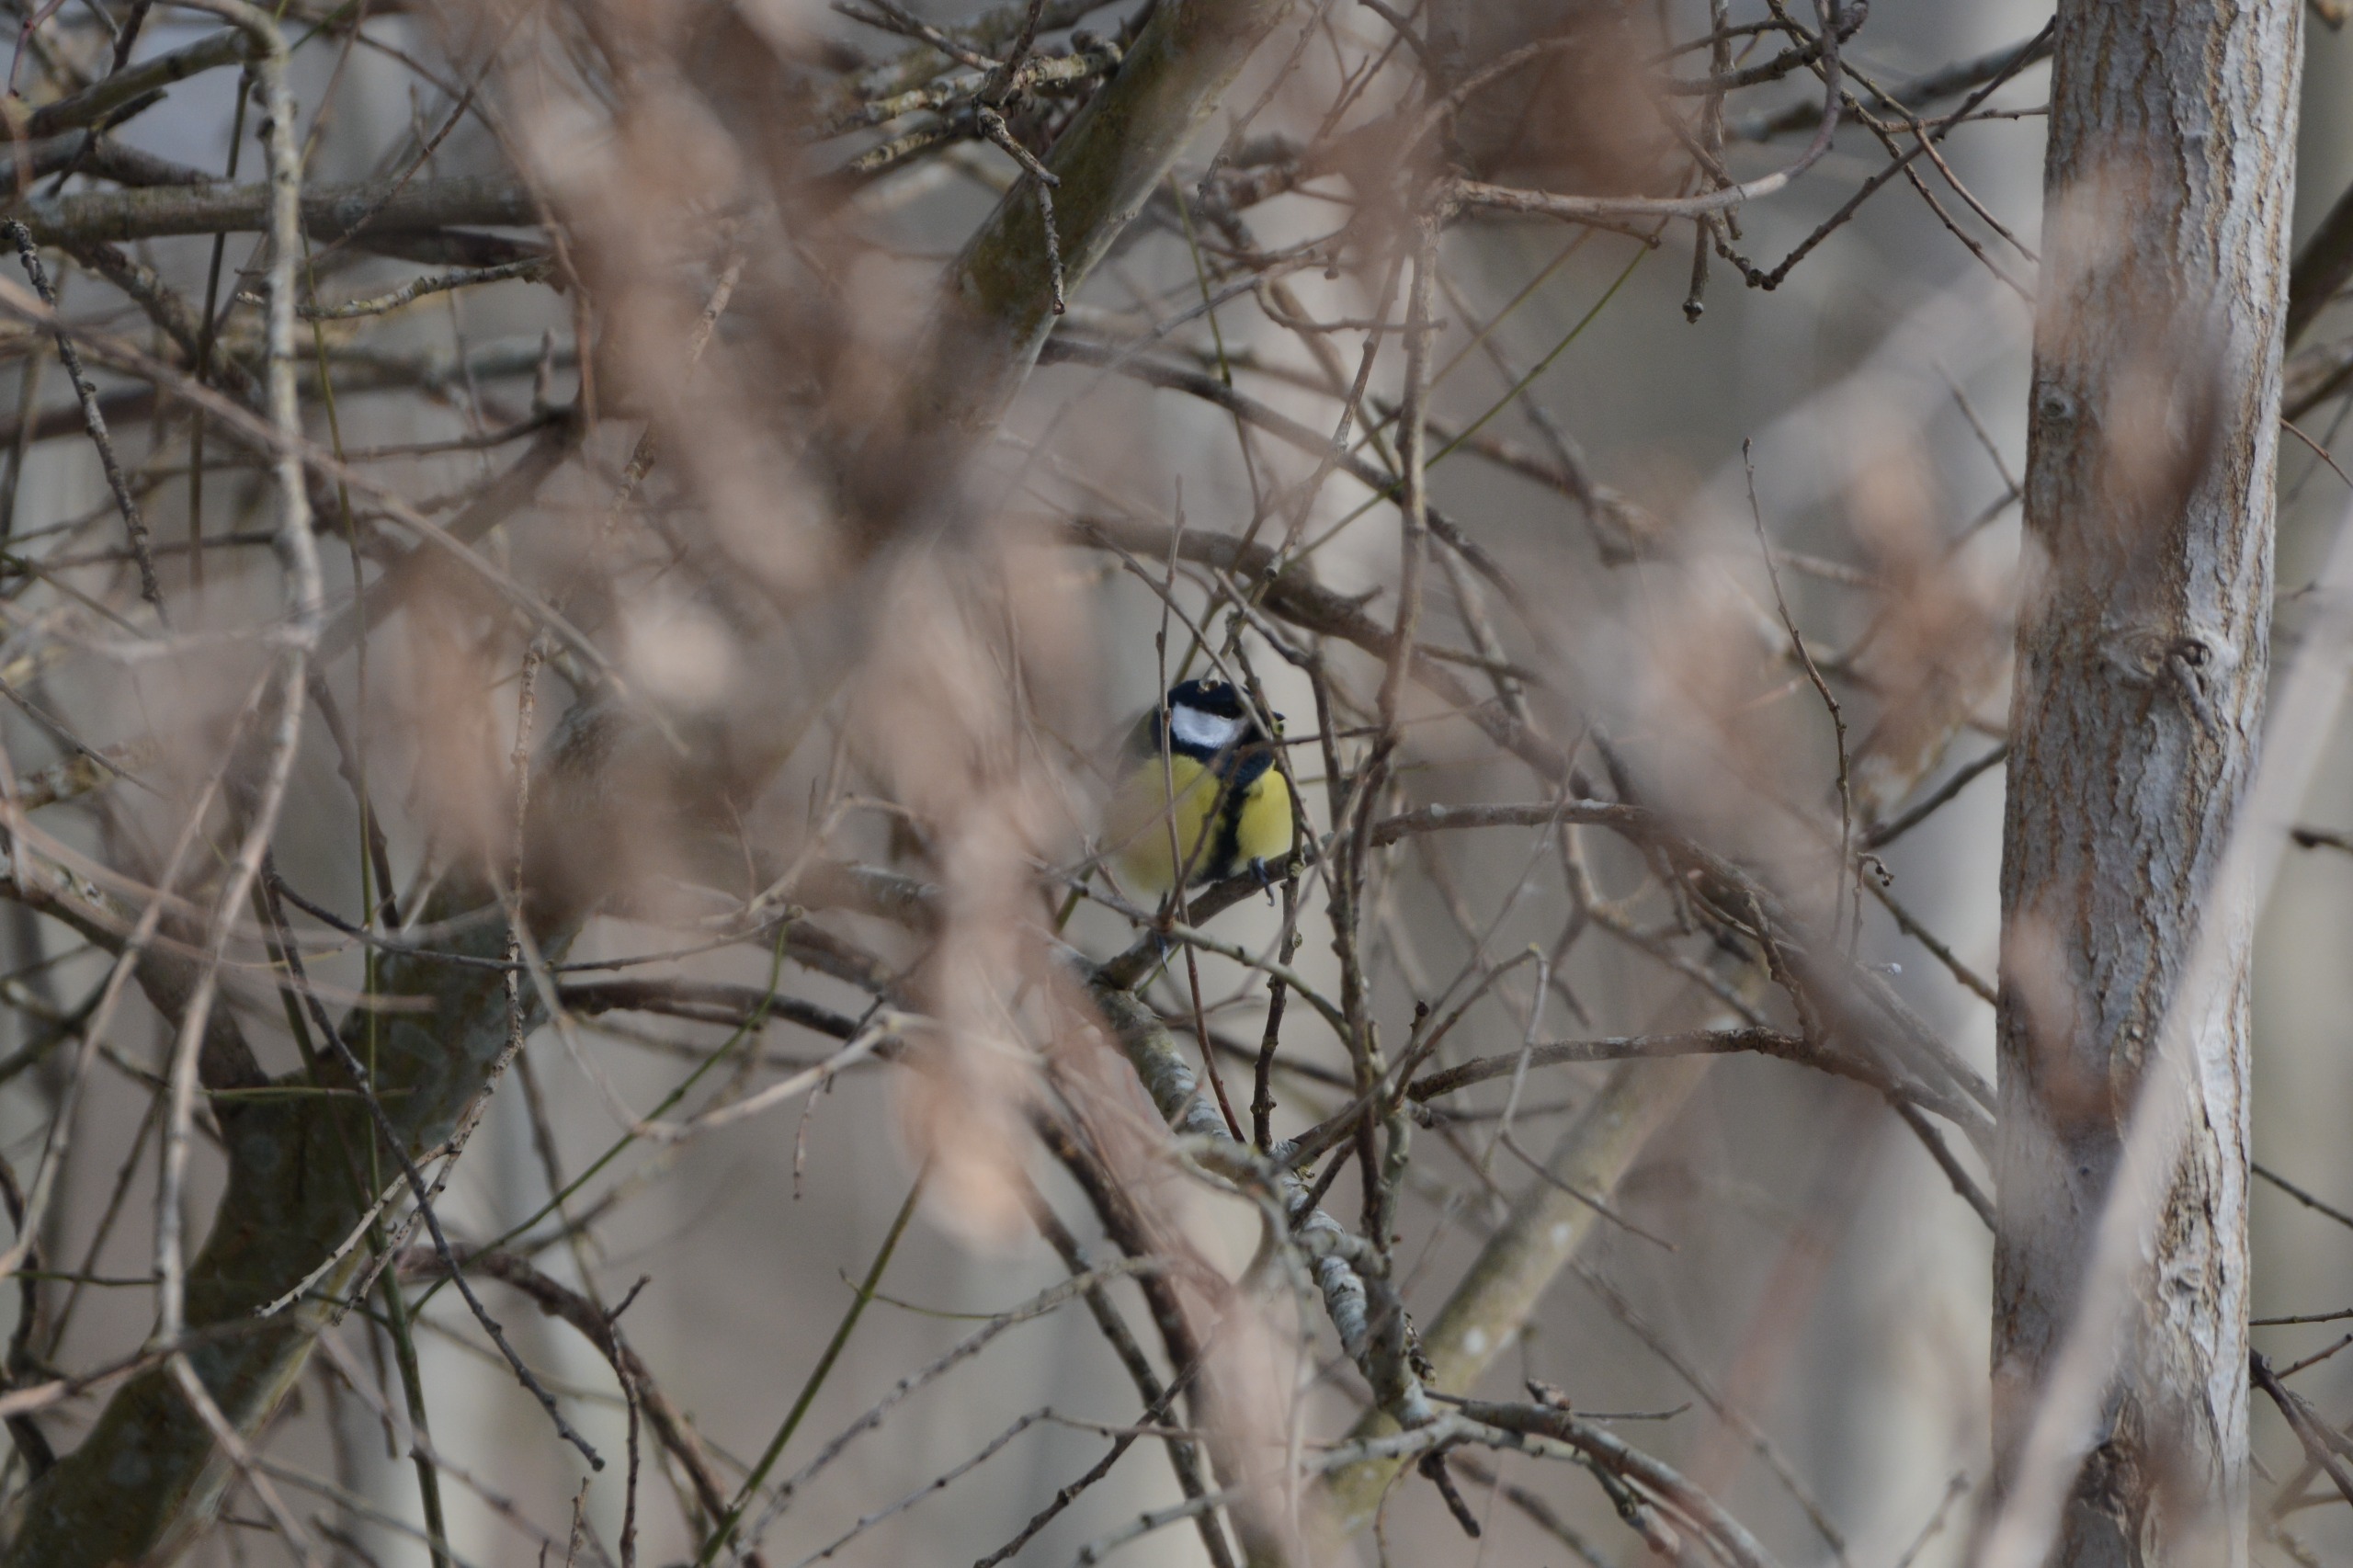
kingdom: Animalia
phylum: Chordata
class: Aves
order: Passeriformes
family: Paridae
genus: Parus
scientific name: Parus major
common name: Musvit
